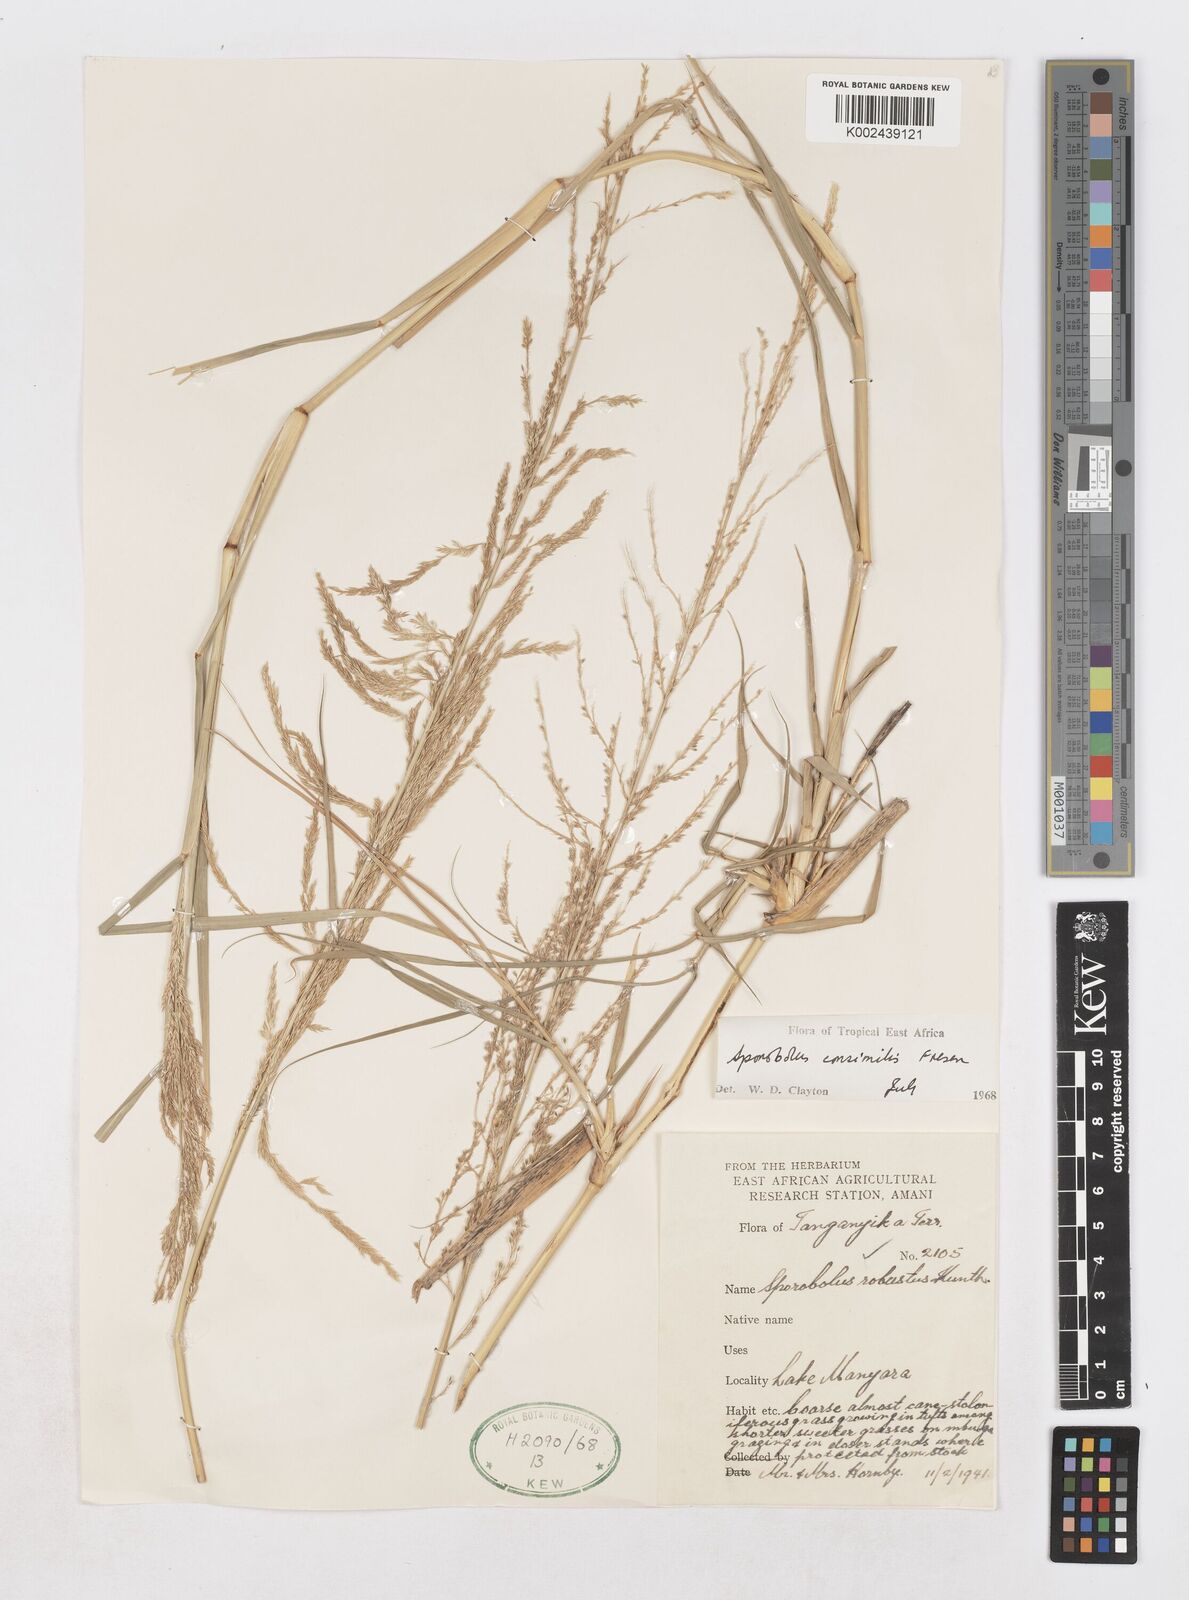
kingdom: Plantae
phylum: Tracheophyta
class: Liliopsida
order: Poales
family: Poaceae
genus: Sporobolus
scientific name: Sporobolus consimilis
